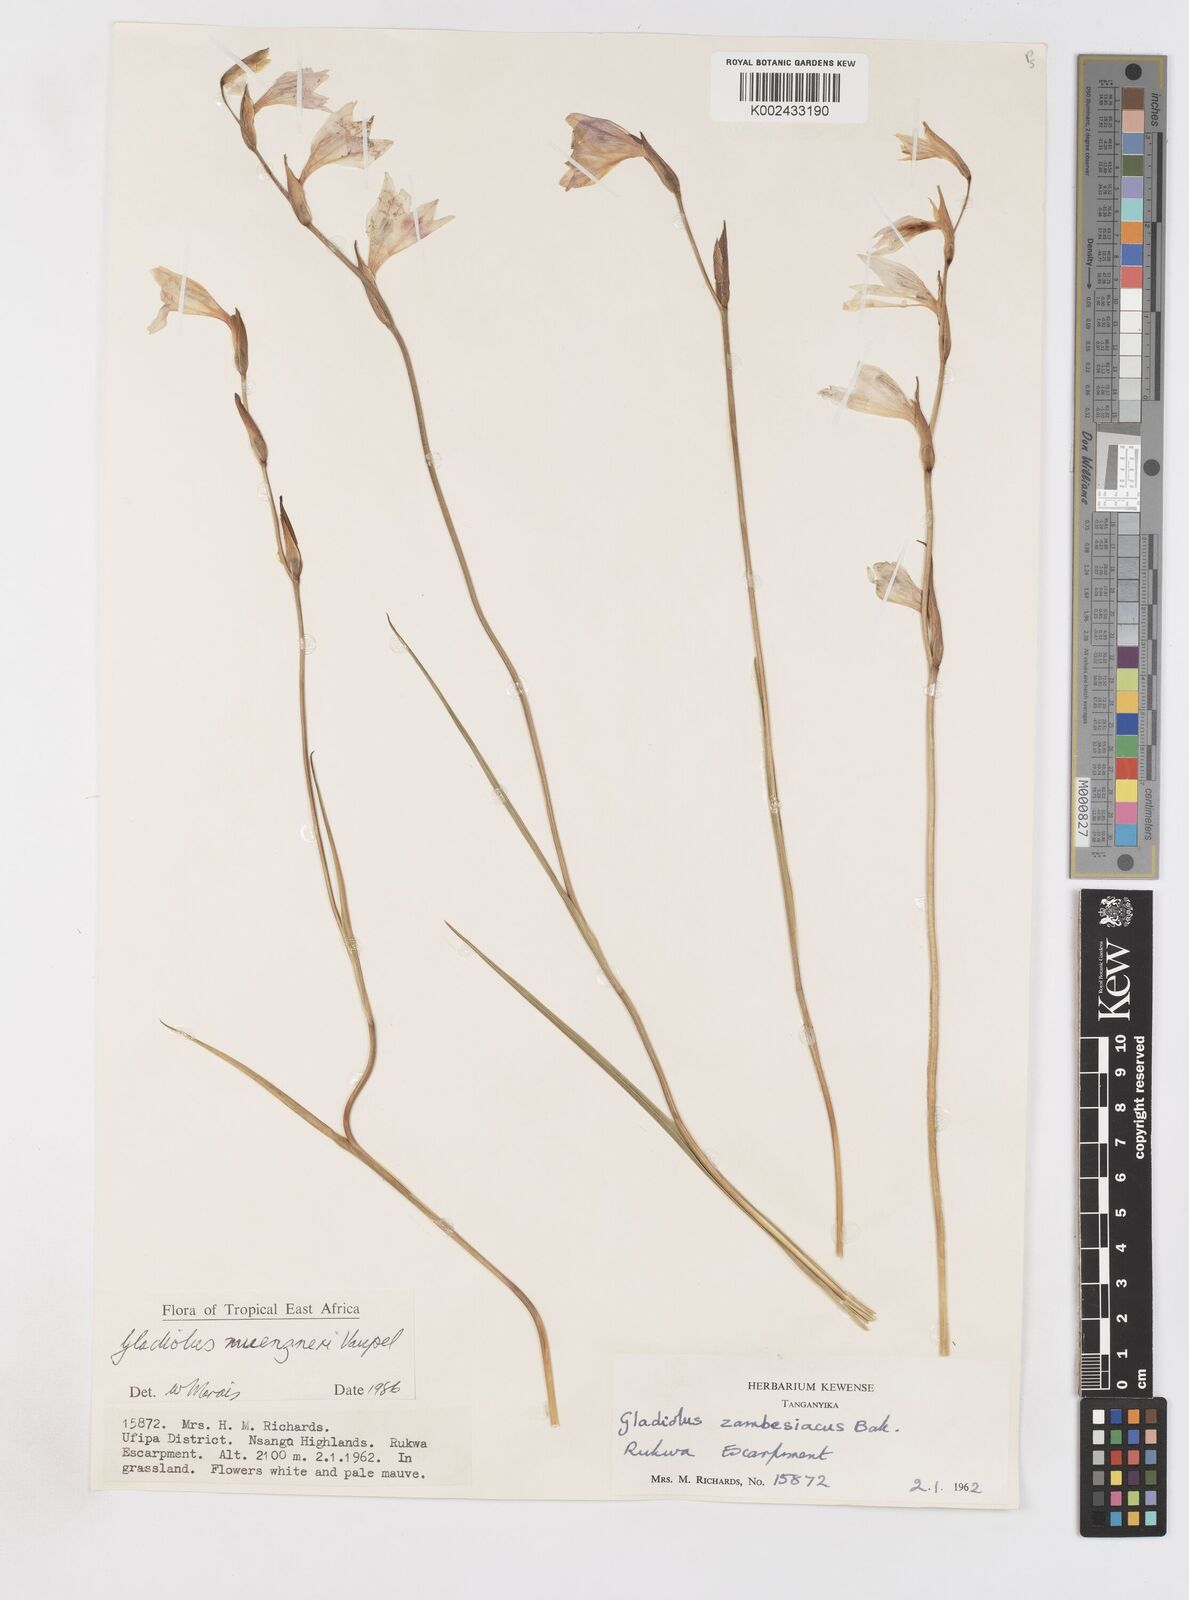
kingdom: Plantae
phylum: Tracheophyta
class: Liliopsida
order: Asparagales
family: Iridaceae
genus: Gladiolus
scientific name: Gladiolus muenzneri
